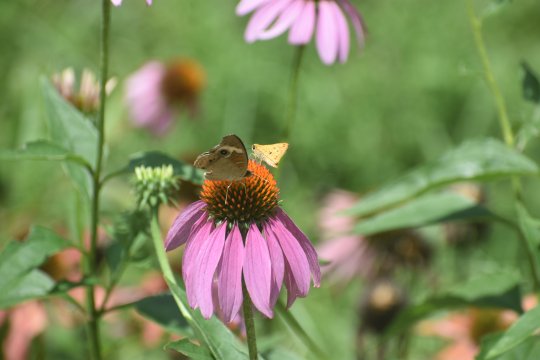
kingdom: Animalia
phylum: Arthropoda
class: Insecta
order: Lepidoptera
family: Nymphalidae
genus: Junonia
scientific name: Junonia coenia
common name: Common Buckeye
